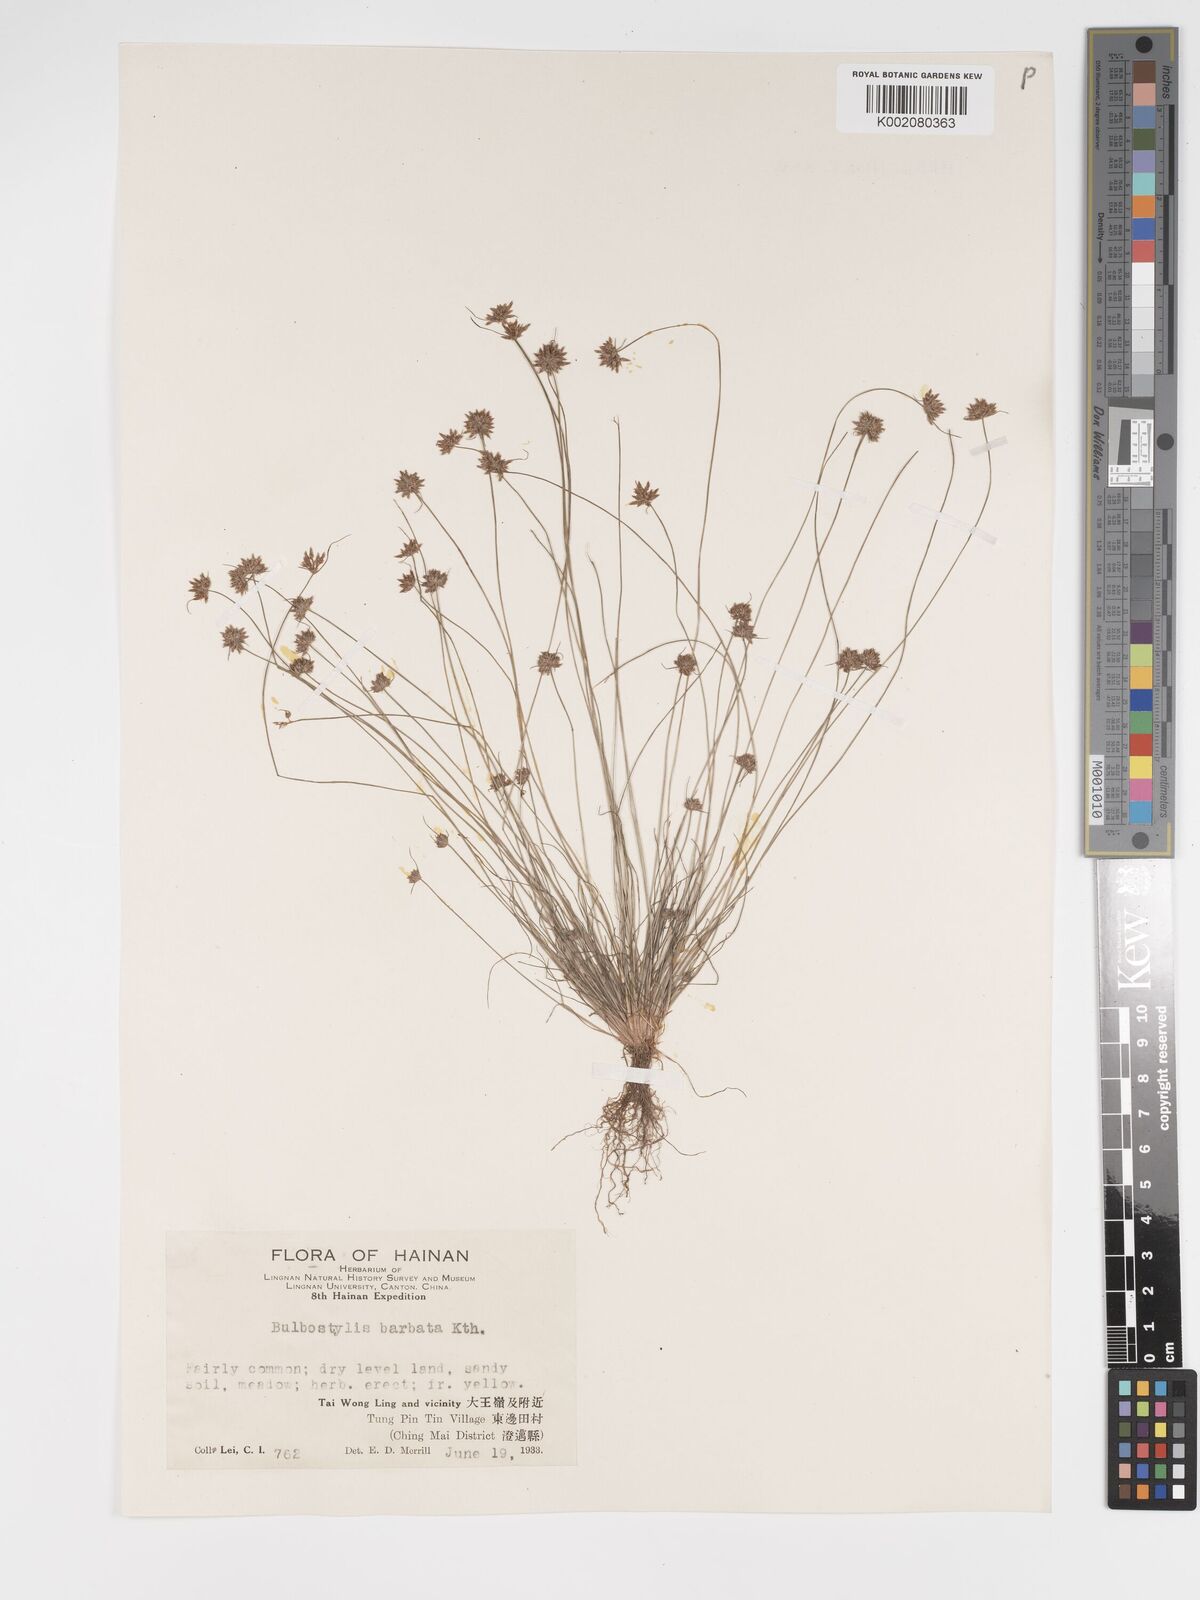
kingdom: Plantae
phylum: Tracheophyta
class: Liliopsida
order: Poales
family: Cyperaceae
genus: Bulbostylis
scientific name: Bulbostylis barbata
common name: Watergrass
